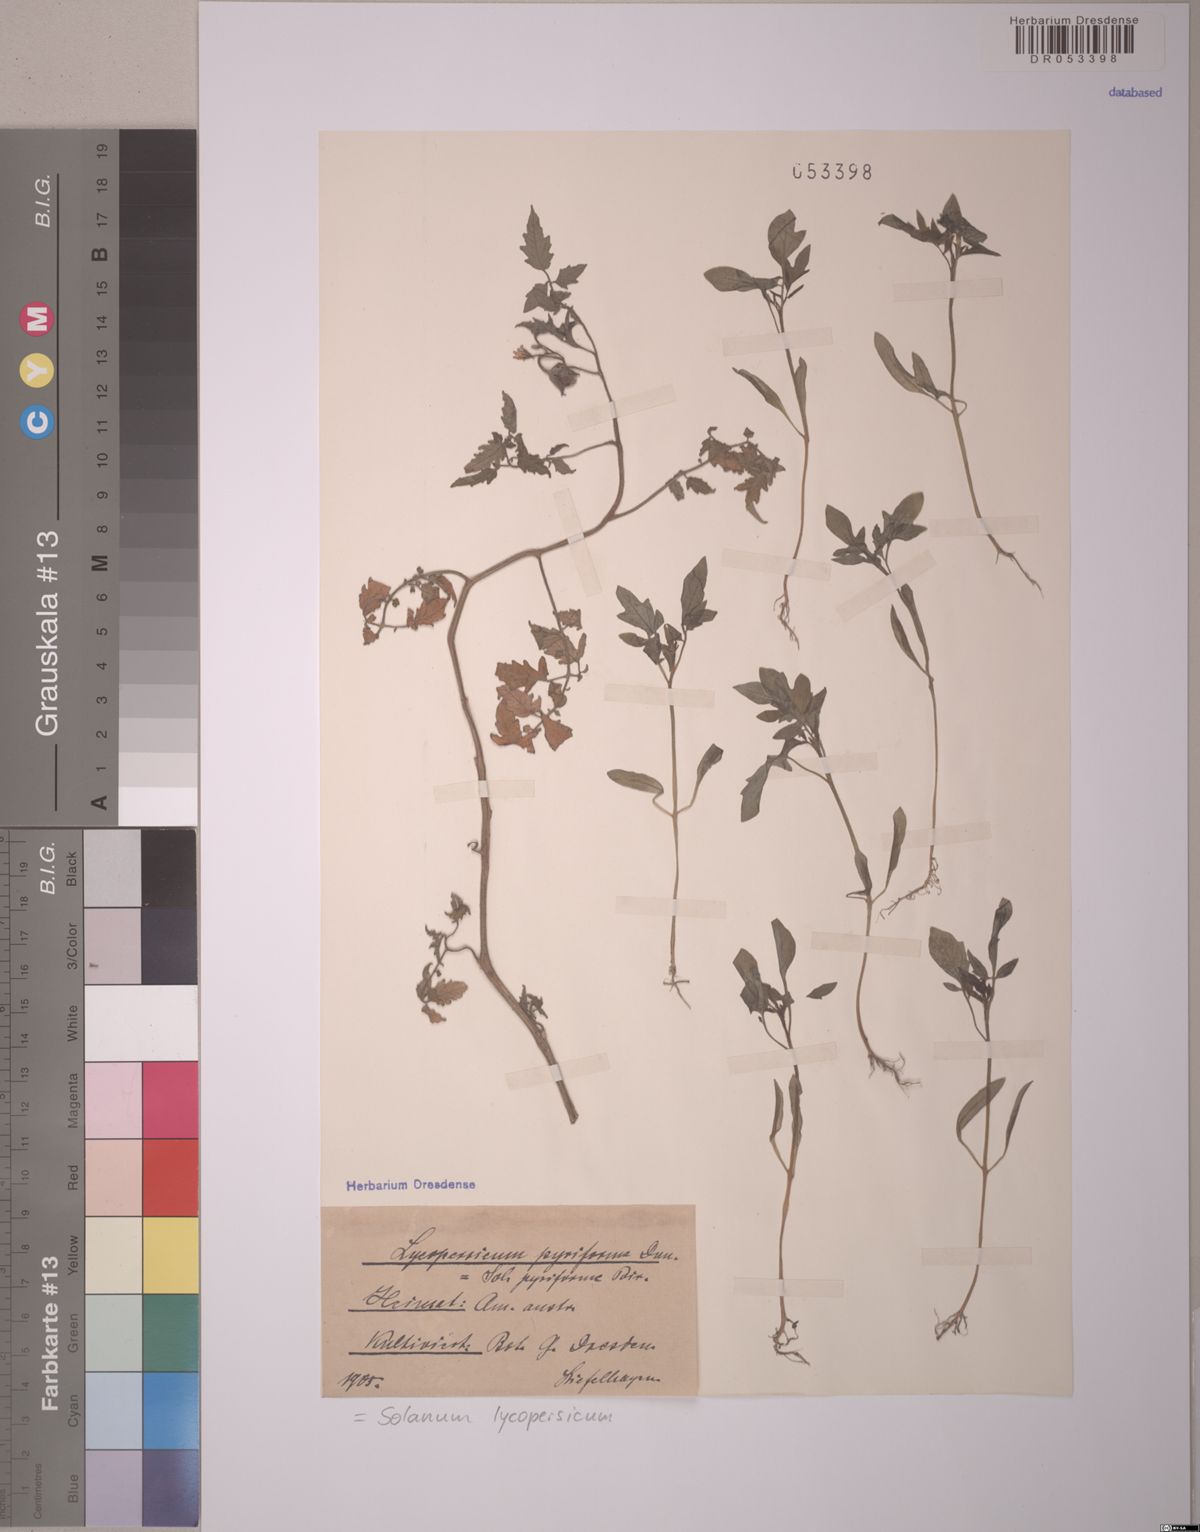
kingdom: Plantae
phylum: Tracheophyta
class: Magnoliopsida
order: Solanales
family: Solanaceae
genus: Solanum
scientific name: Solanum lycopersicum
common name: Garden tomato
